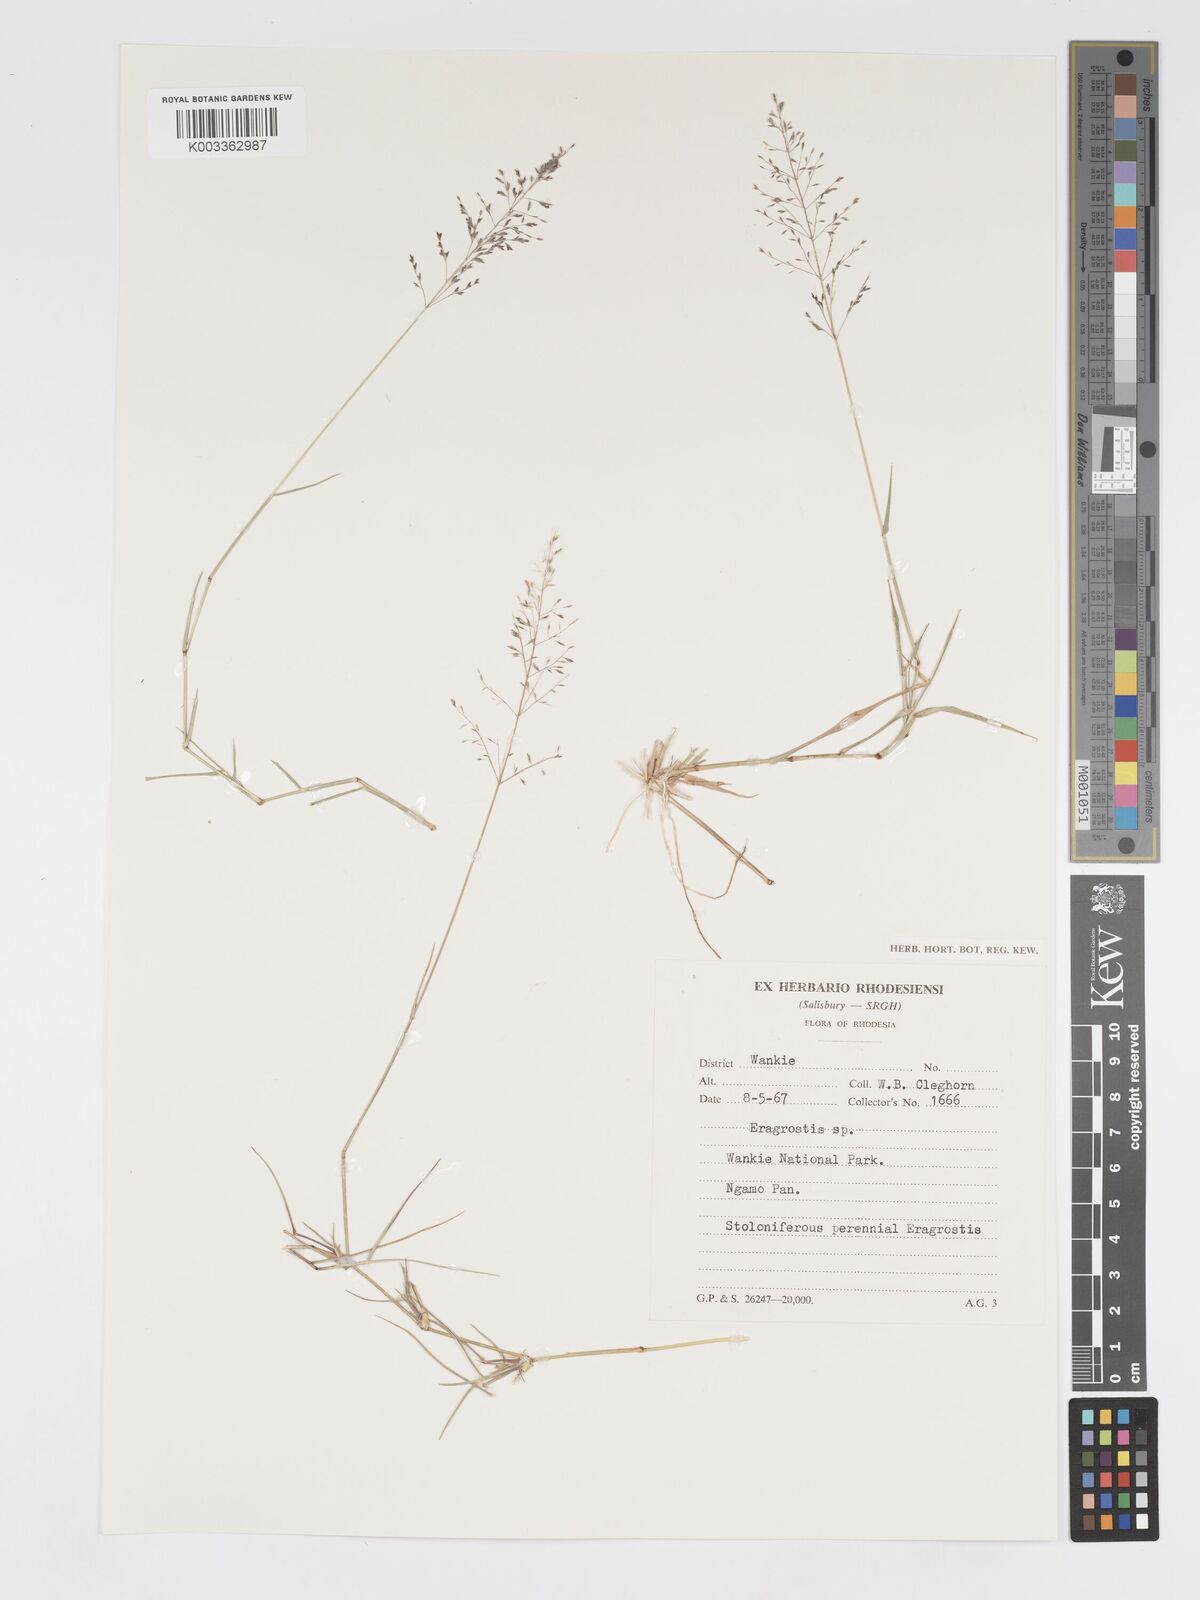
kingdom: Plantae
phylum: Tracheophyta
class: Liliopsida
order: Poales
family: Poaceae
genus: Eragrostis
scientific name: Eragrostis cylindriflora
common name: Cylinderflower lovegrass
